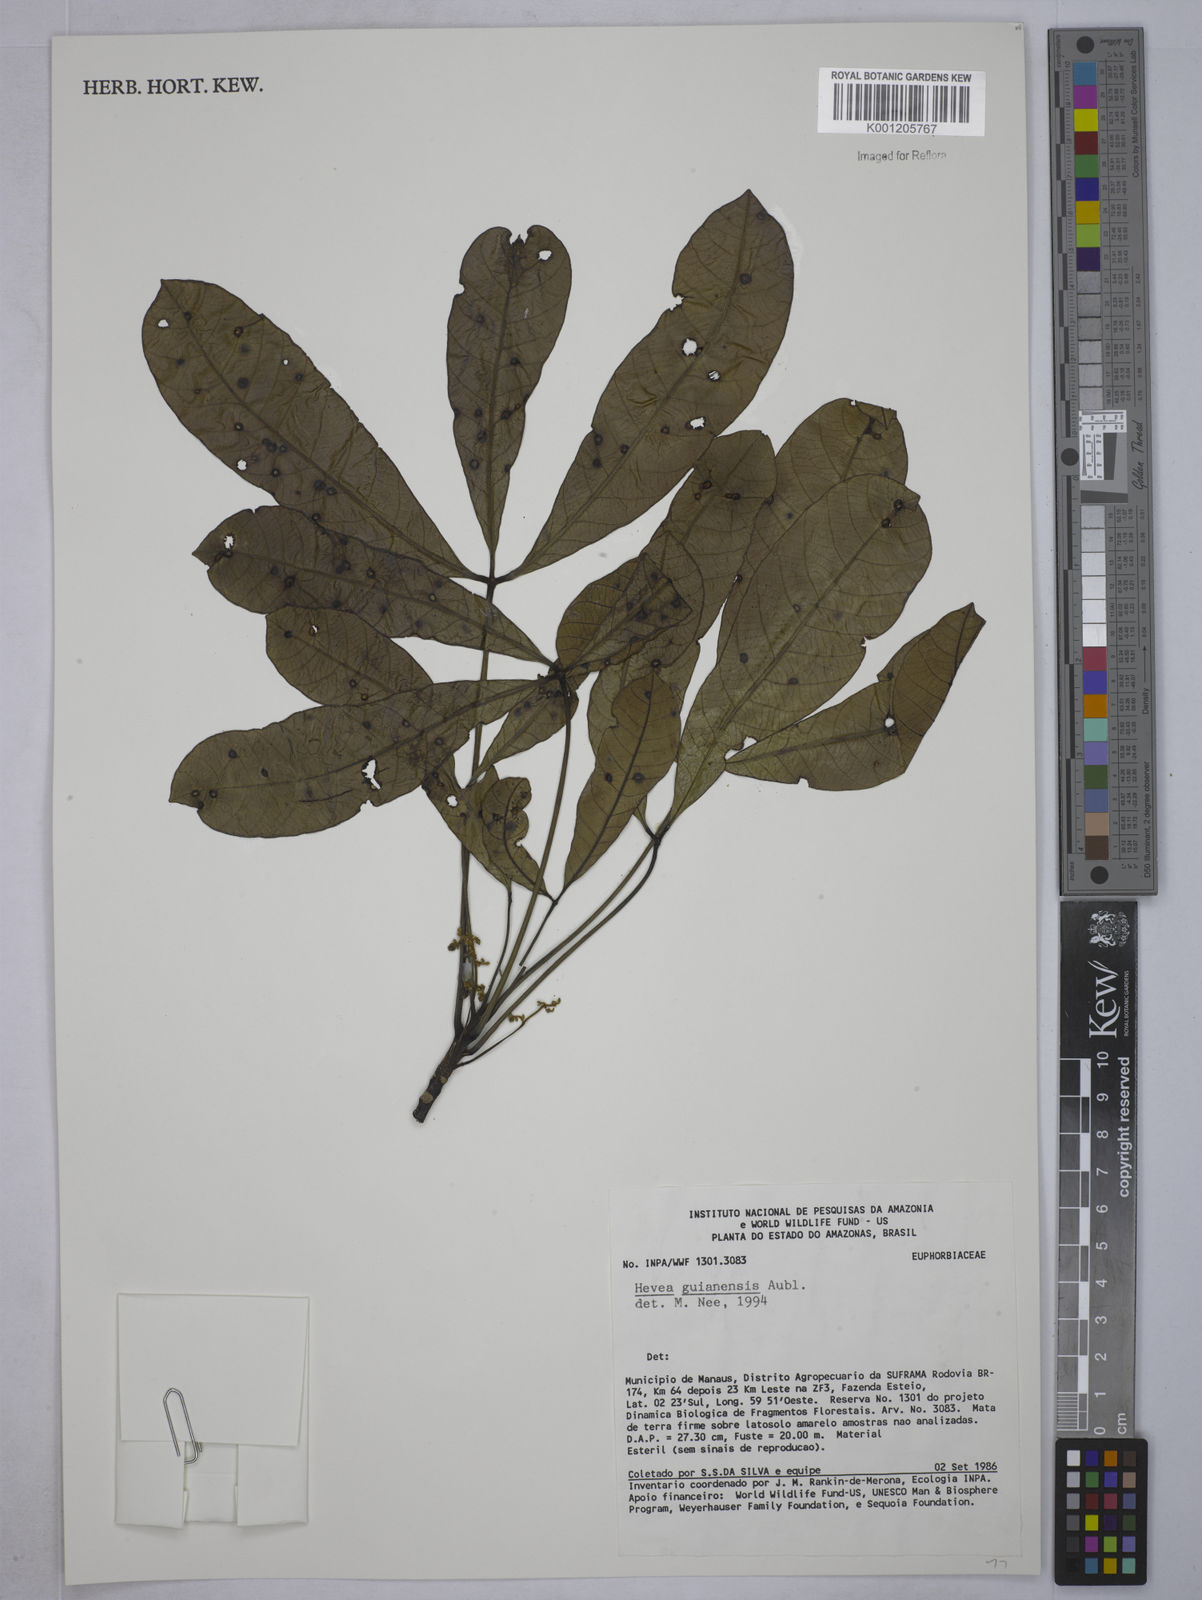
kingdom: Plantae
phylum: Tracheophyta
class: Magnoliopsida
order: Malpighiales
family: Euphorbiaceae
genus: Hevea
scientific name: Hevea guianensis
